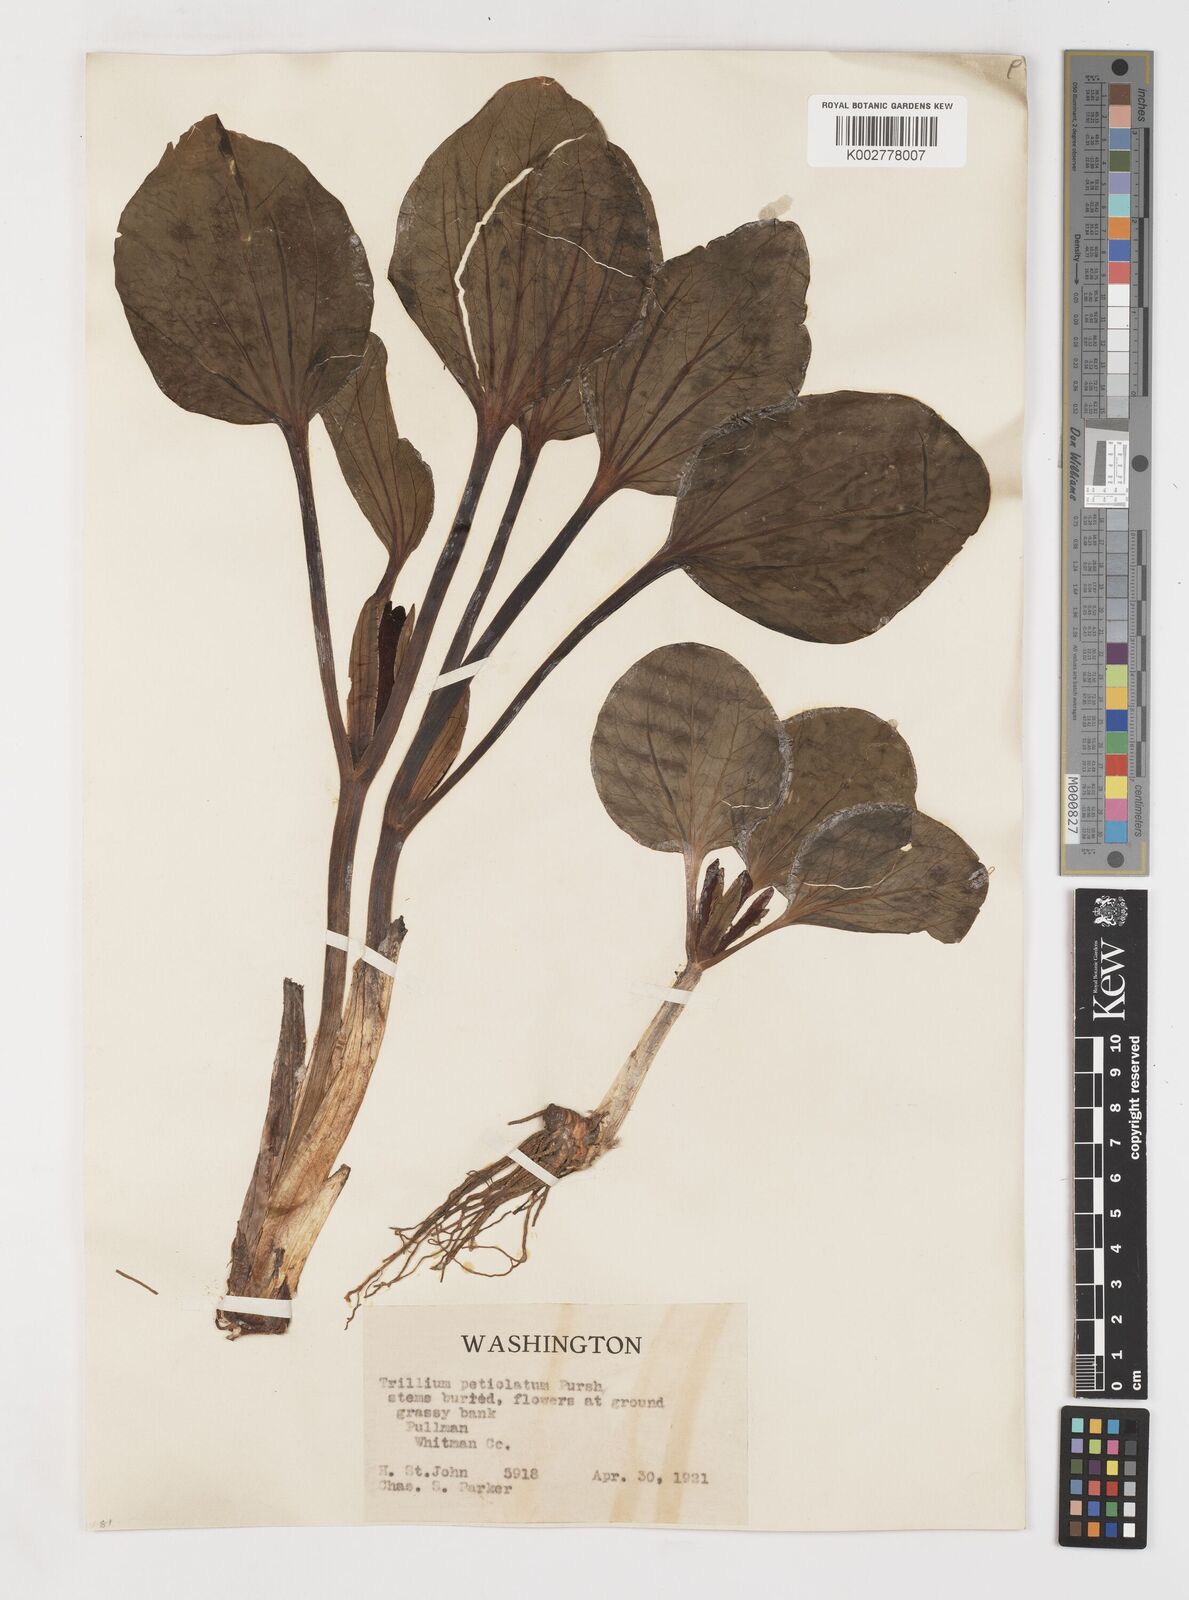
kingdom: Plantae
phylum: Tracheophyta
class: Liliopsida
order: Liliales
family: Melanthiaceae
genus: Trillium
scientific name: Trillium petiolatum
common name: Idaho trillium
